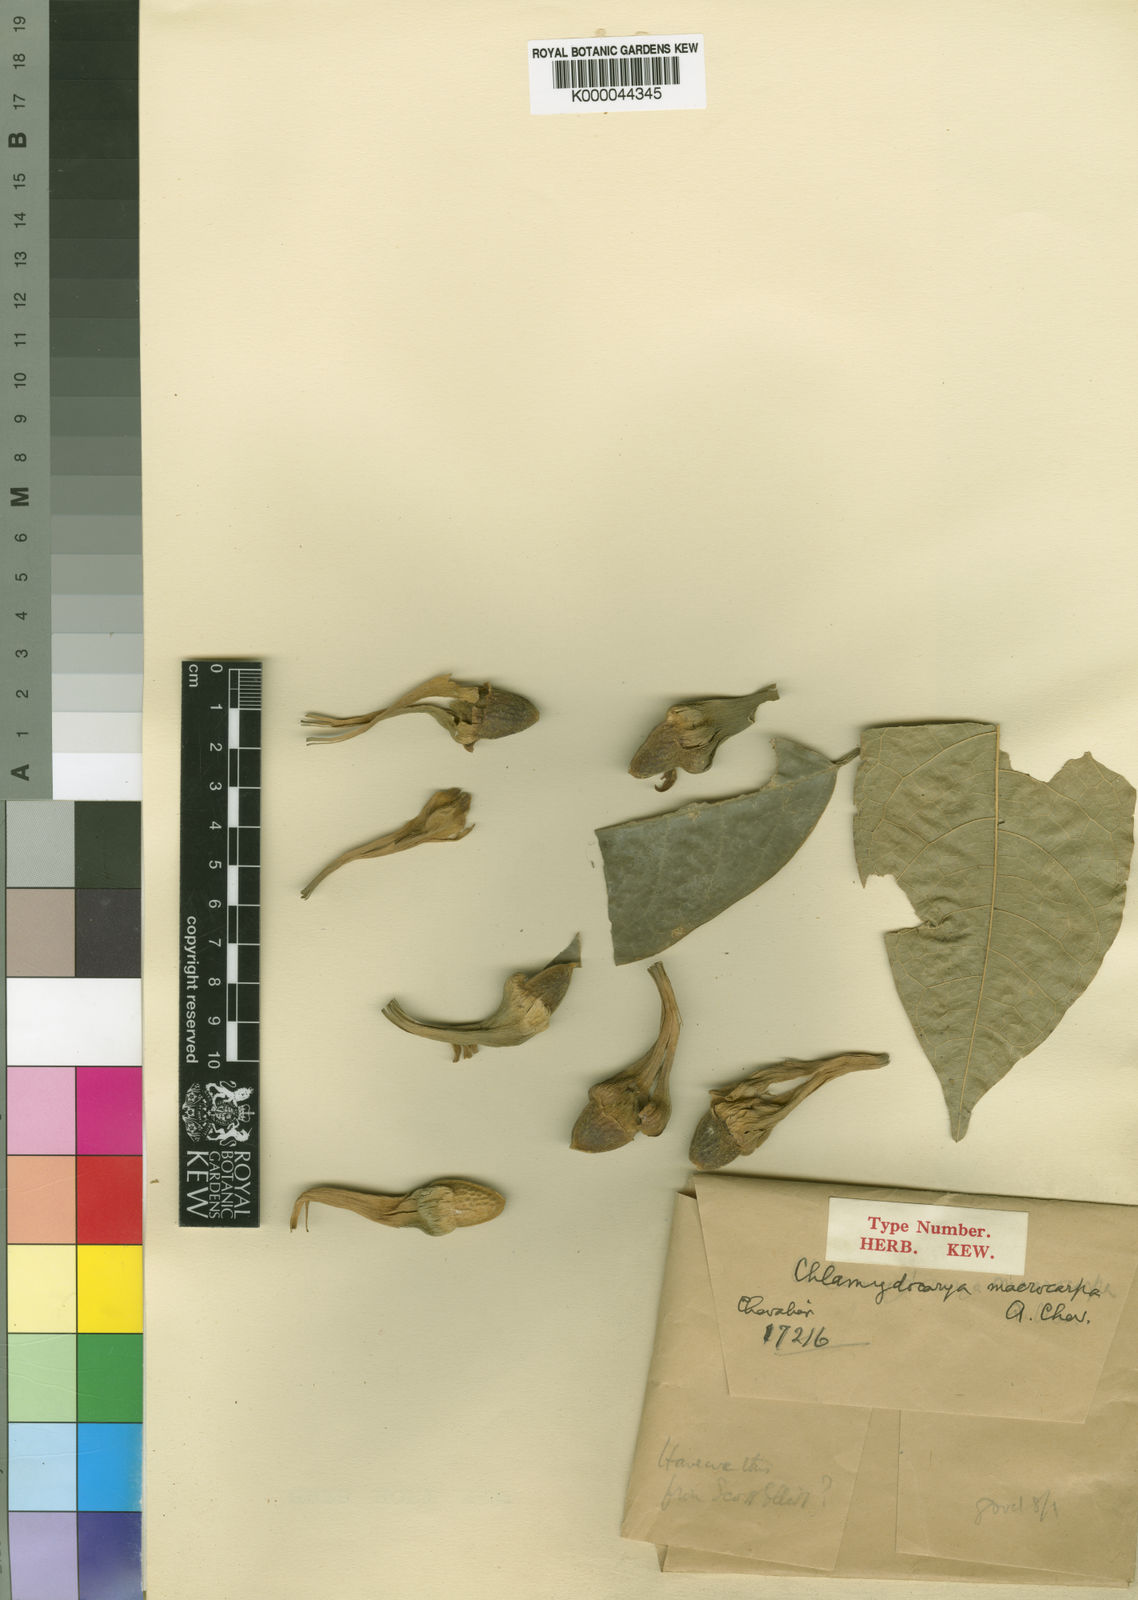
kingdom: Plantae
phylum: Tracheophyta
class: Magnoliopsida
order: Icacinales
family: Icacinaceae
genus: Pyrenacantha
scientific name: Pyrenacantha macrocarpa
